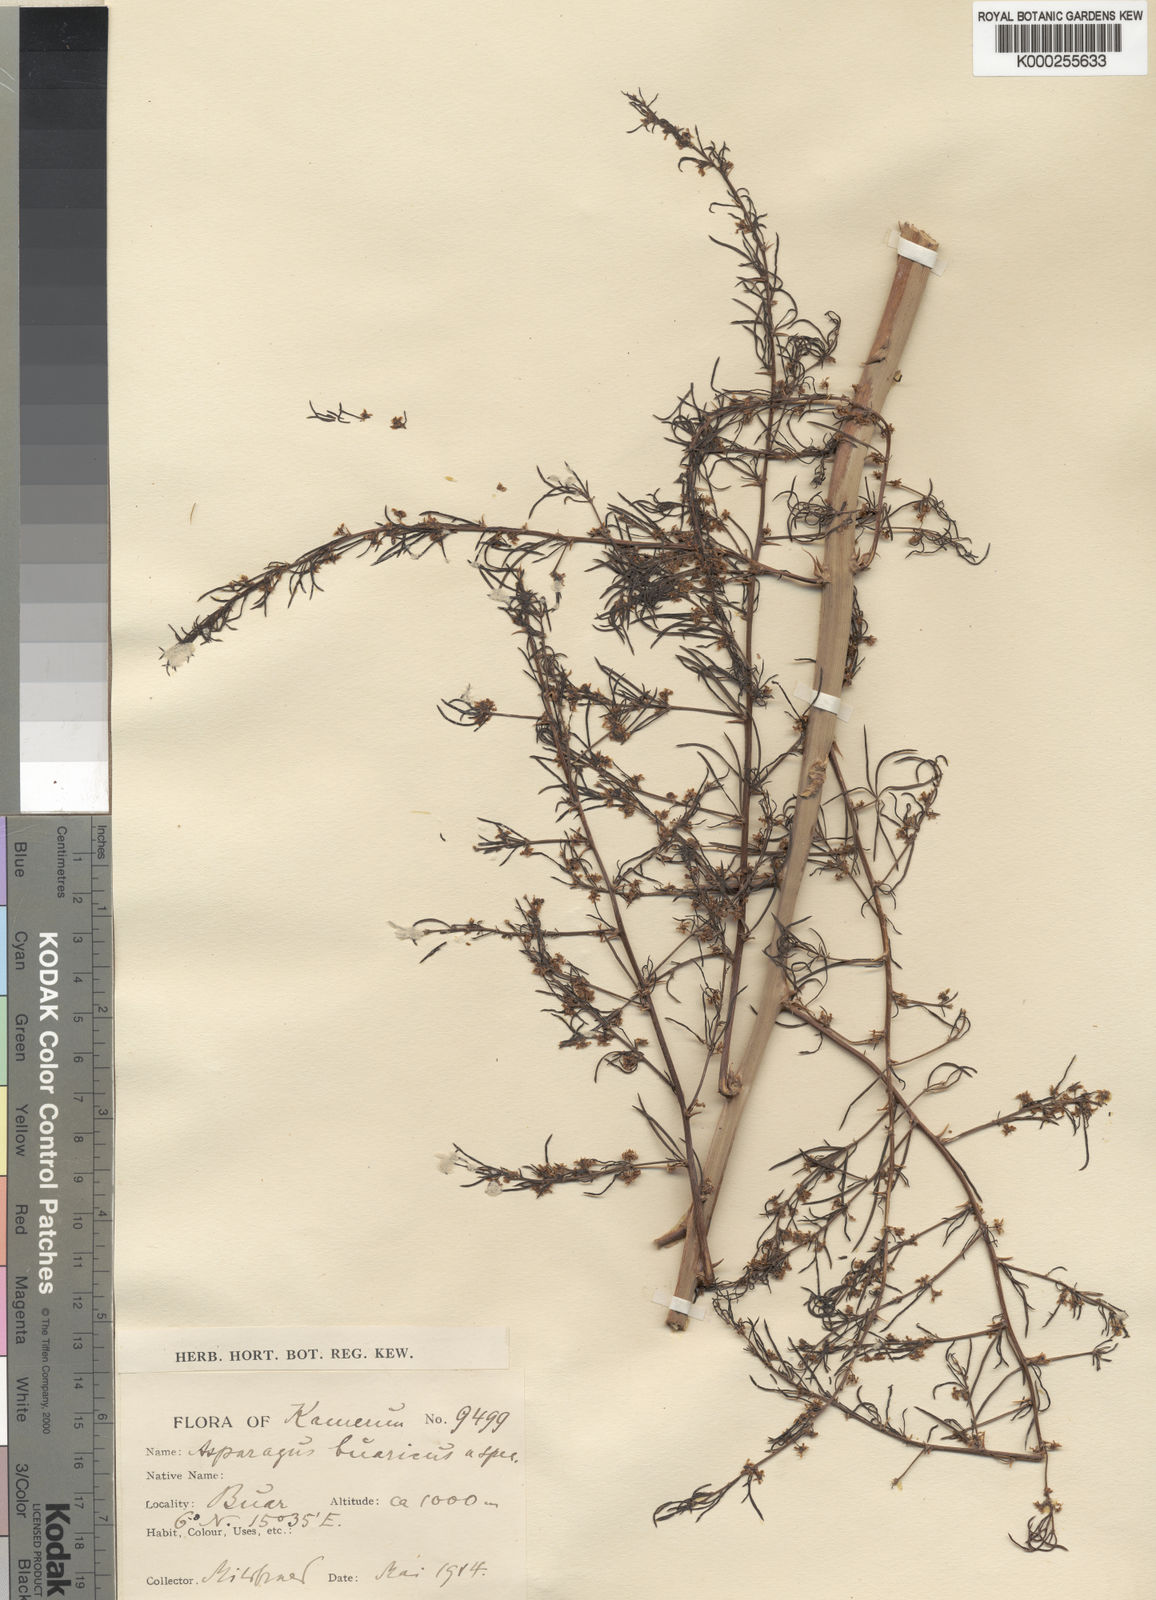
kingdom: Plantae
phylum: Tracheophyta
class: Liliopsida
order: Asparagales
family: Asparagaceae
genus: Asparagus
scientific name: Asparagus schroederi
